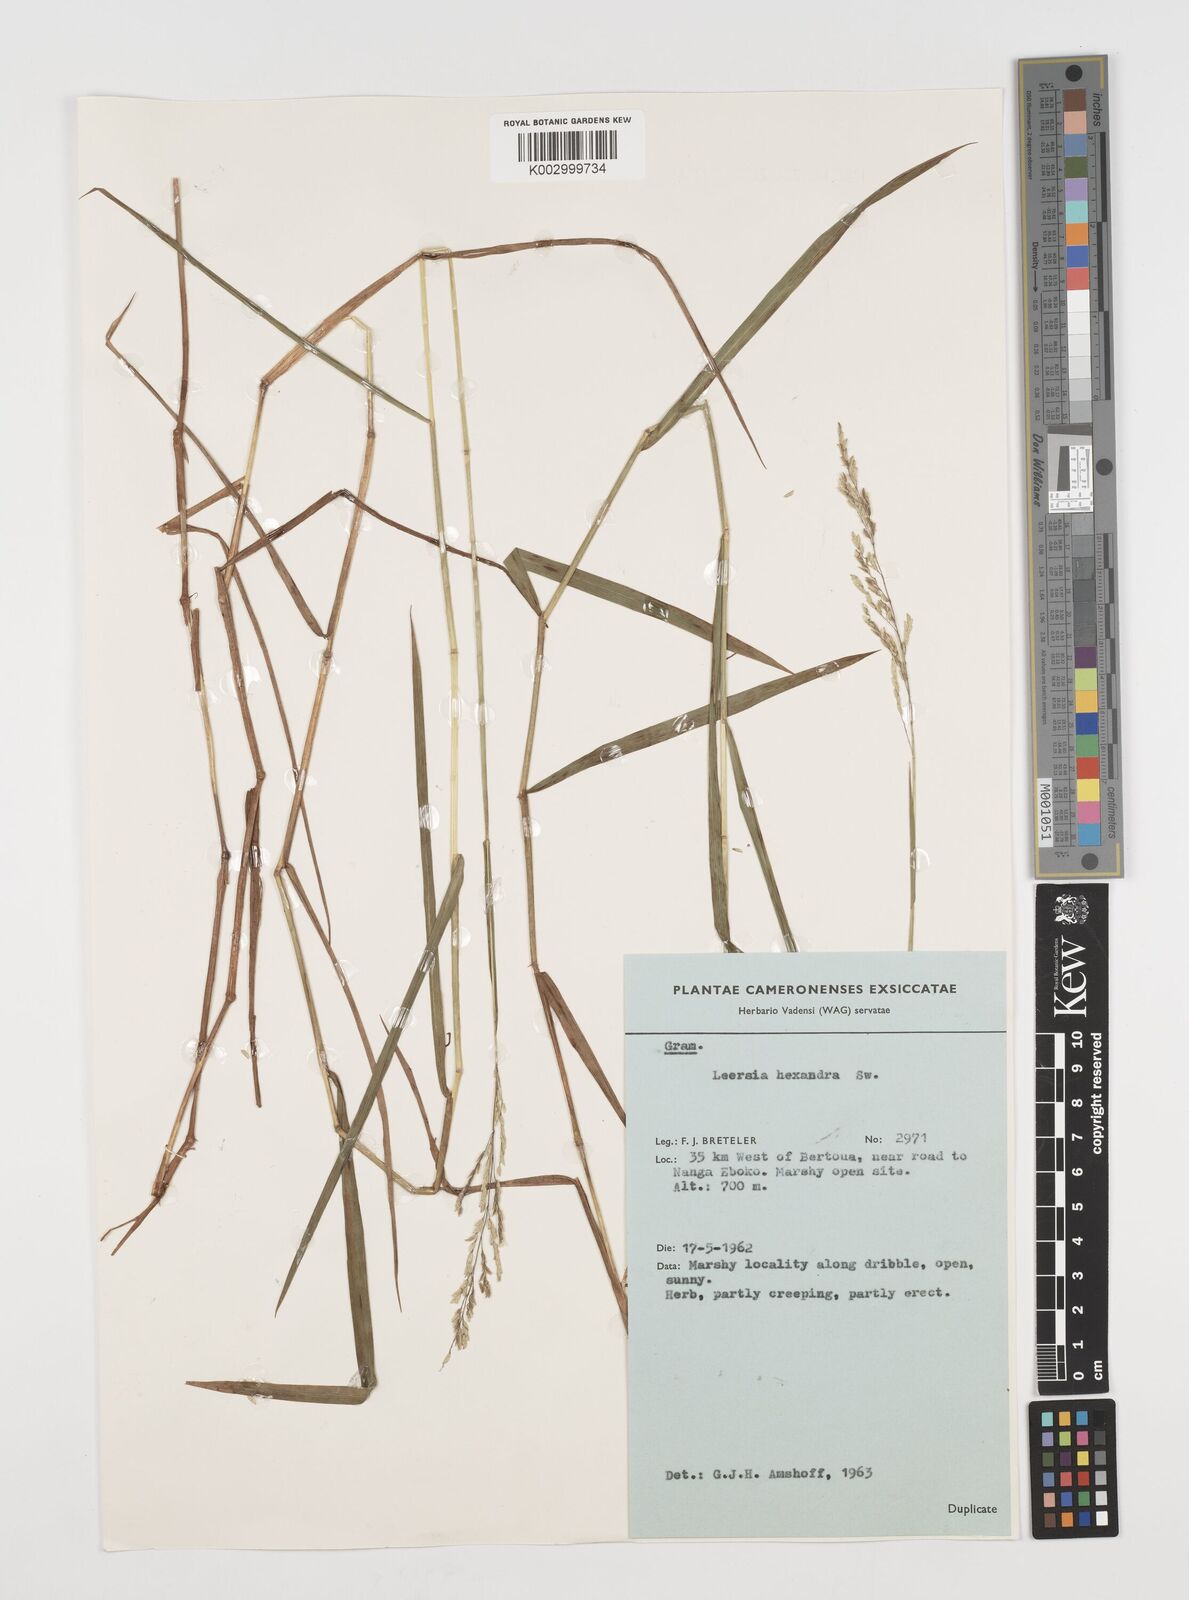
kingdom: Plantae
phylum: Tracheophyta
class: Liliopsida
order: Poales
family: Poaceae
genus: Leersia
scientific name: Leersia hexandra
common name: Southern cut grass
